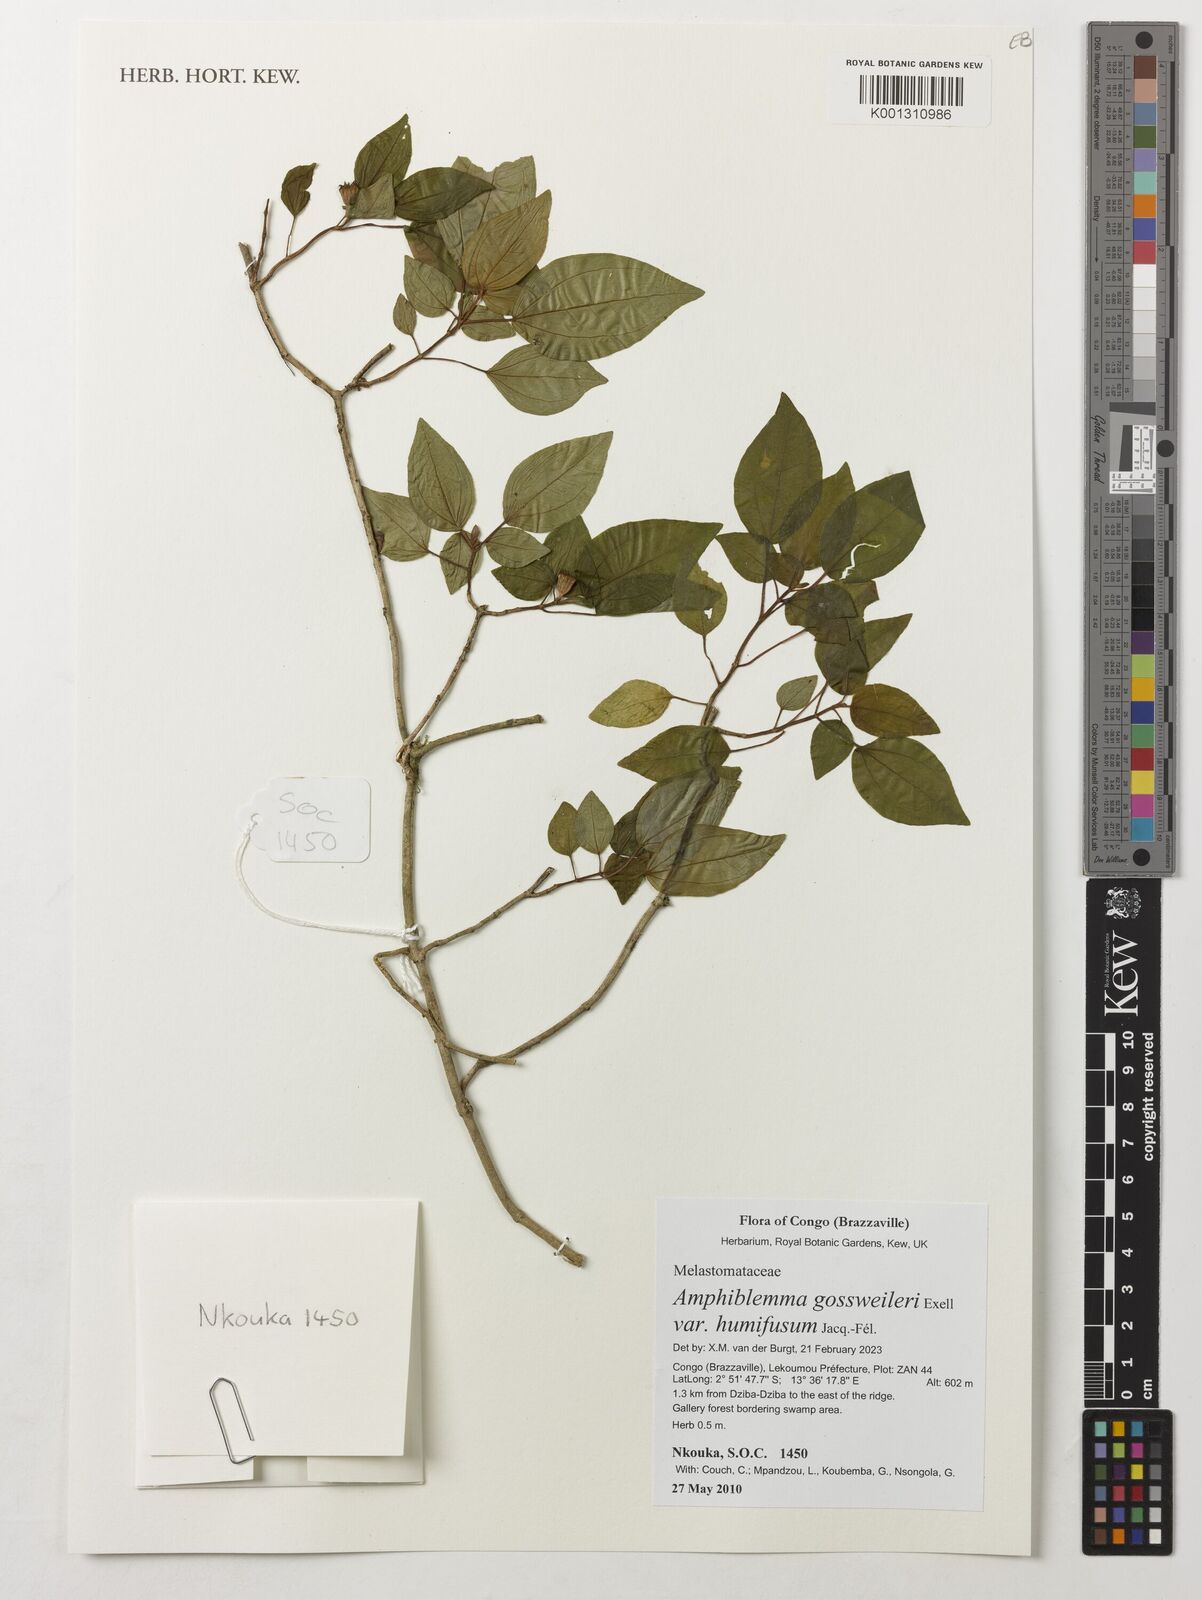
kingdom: Plantae
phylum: Tracheophyta
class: Magnoliopsida
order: Myrtales
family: Melastomataceae
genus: Amphiblemma
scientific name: Amphiblemma gossweileri
